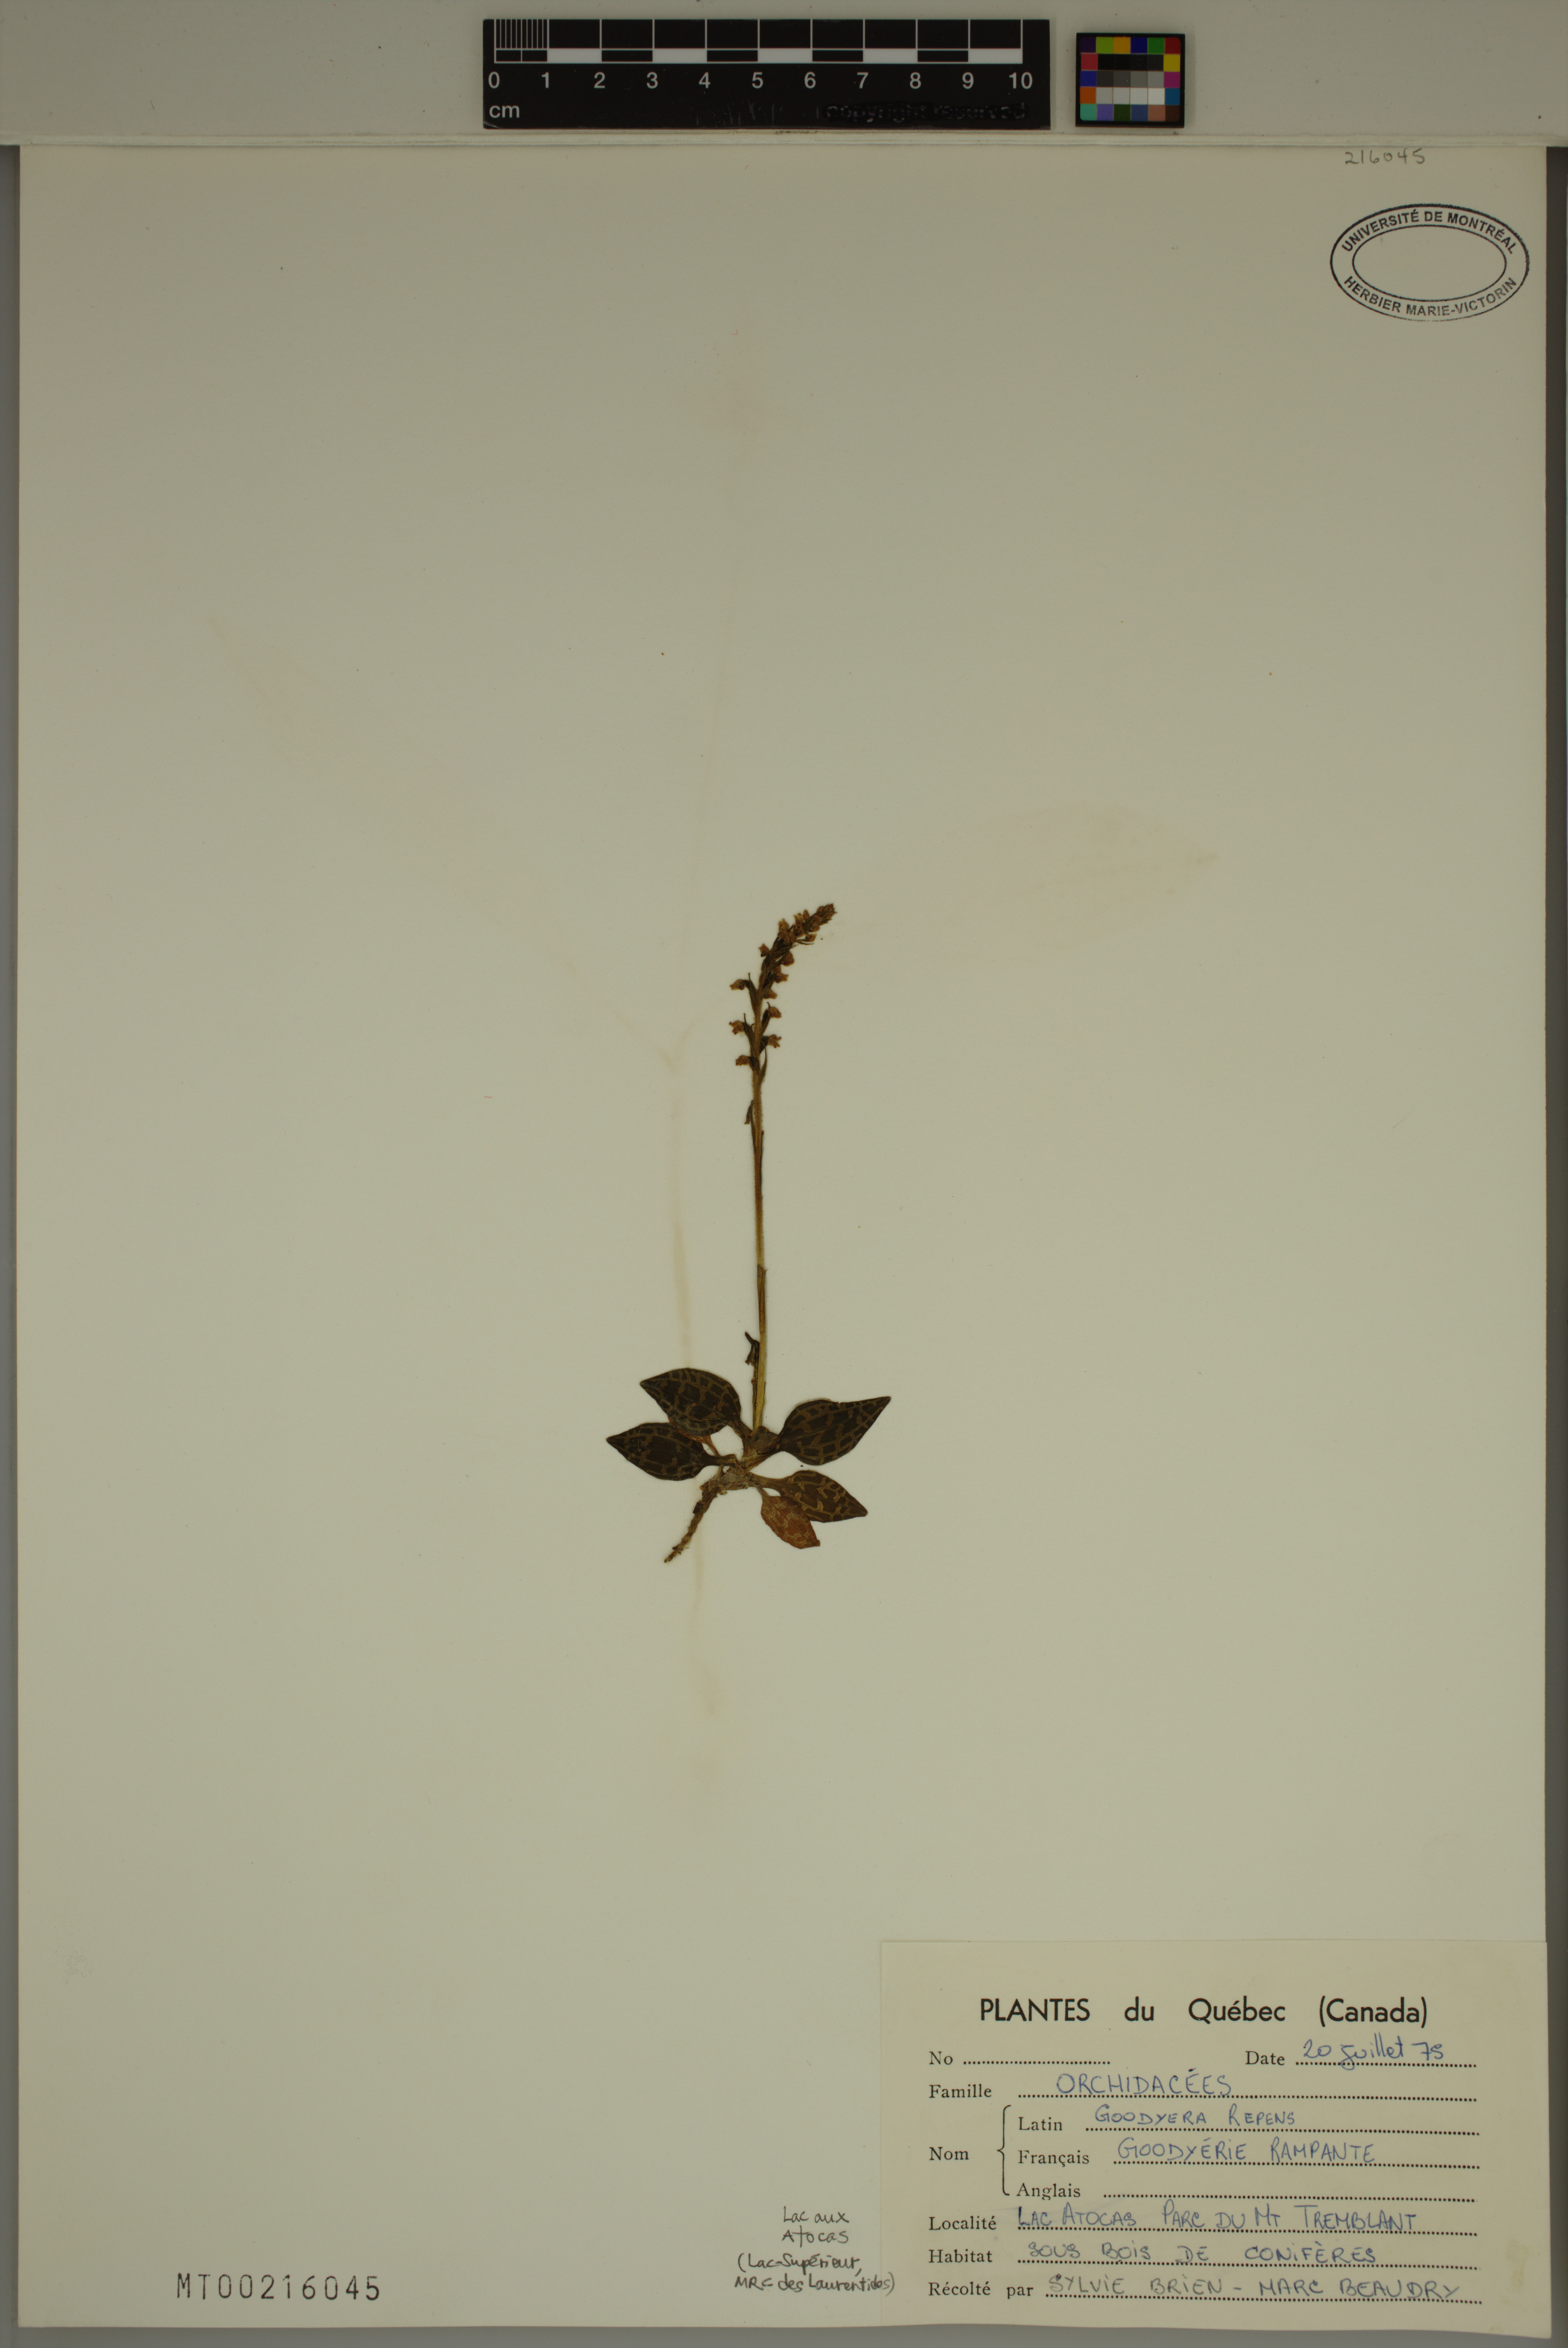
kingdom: Plantae
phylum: Tracheophyta
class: Liliopsida
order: Asparagales
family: Orchidaceae
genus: Goodyera
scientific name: Goodyera repens
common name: Creeping lady's-tresses
